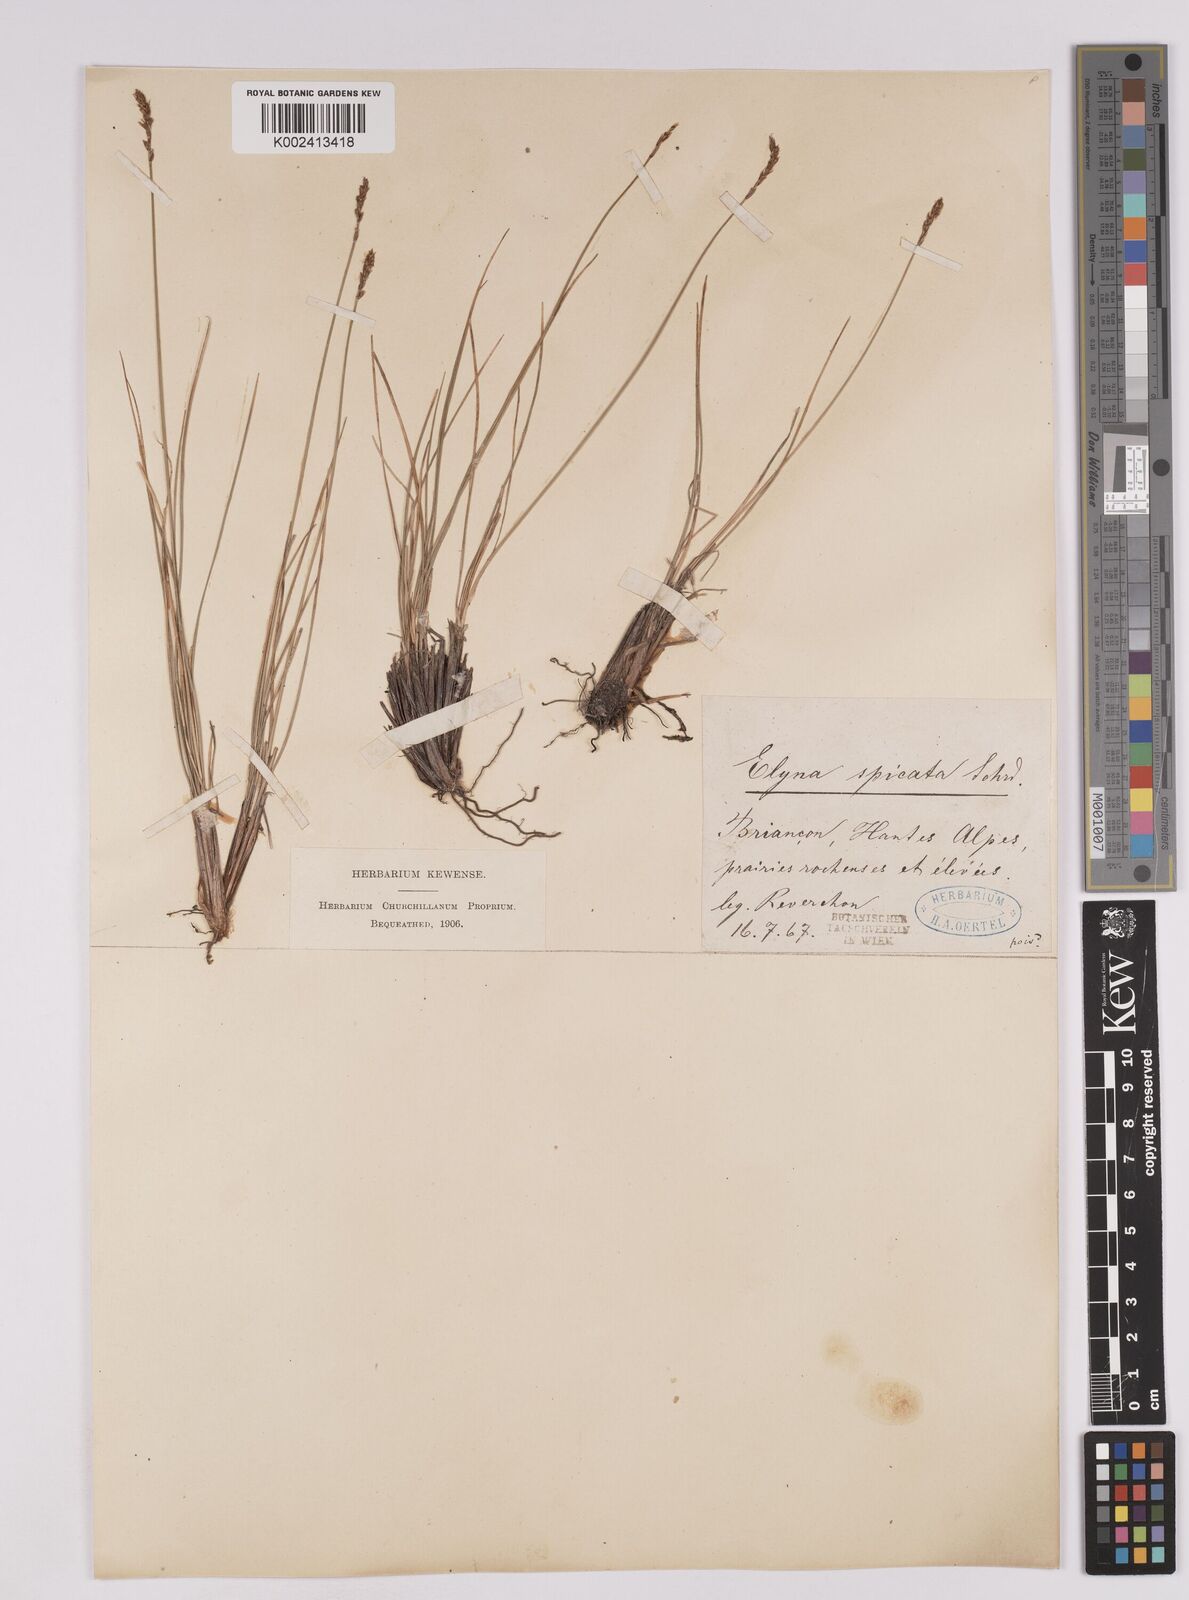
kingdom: Plantae
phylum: Tracheophyta
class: Liliopsida
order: Poales
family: Cyperaceae
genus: Carex
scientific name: Carex myosuroides
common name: Bellard's bog sedge
